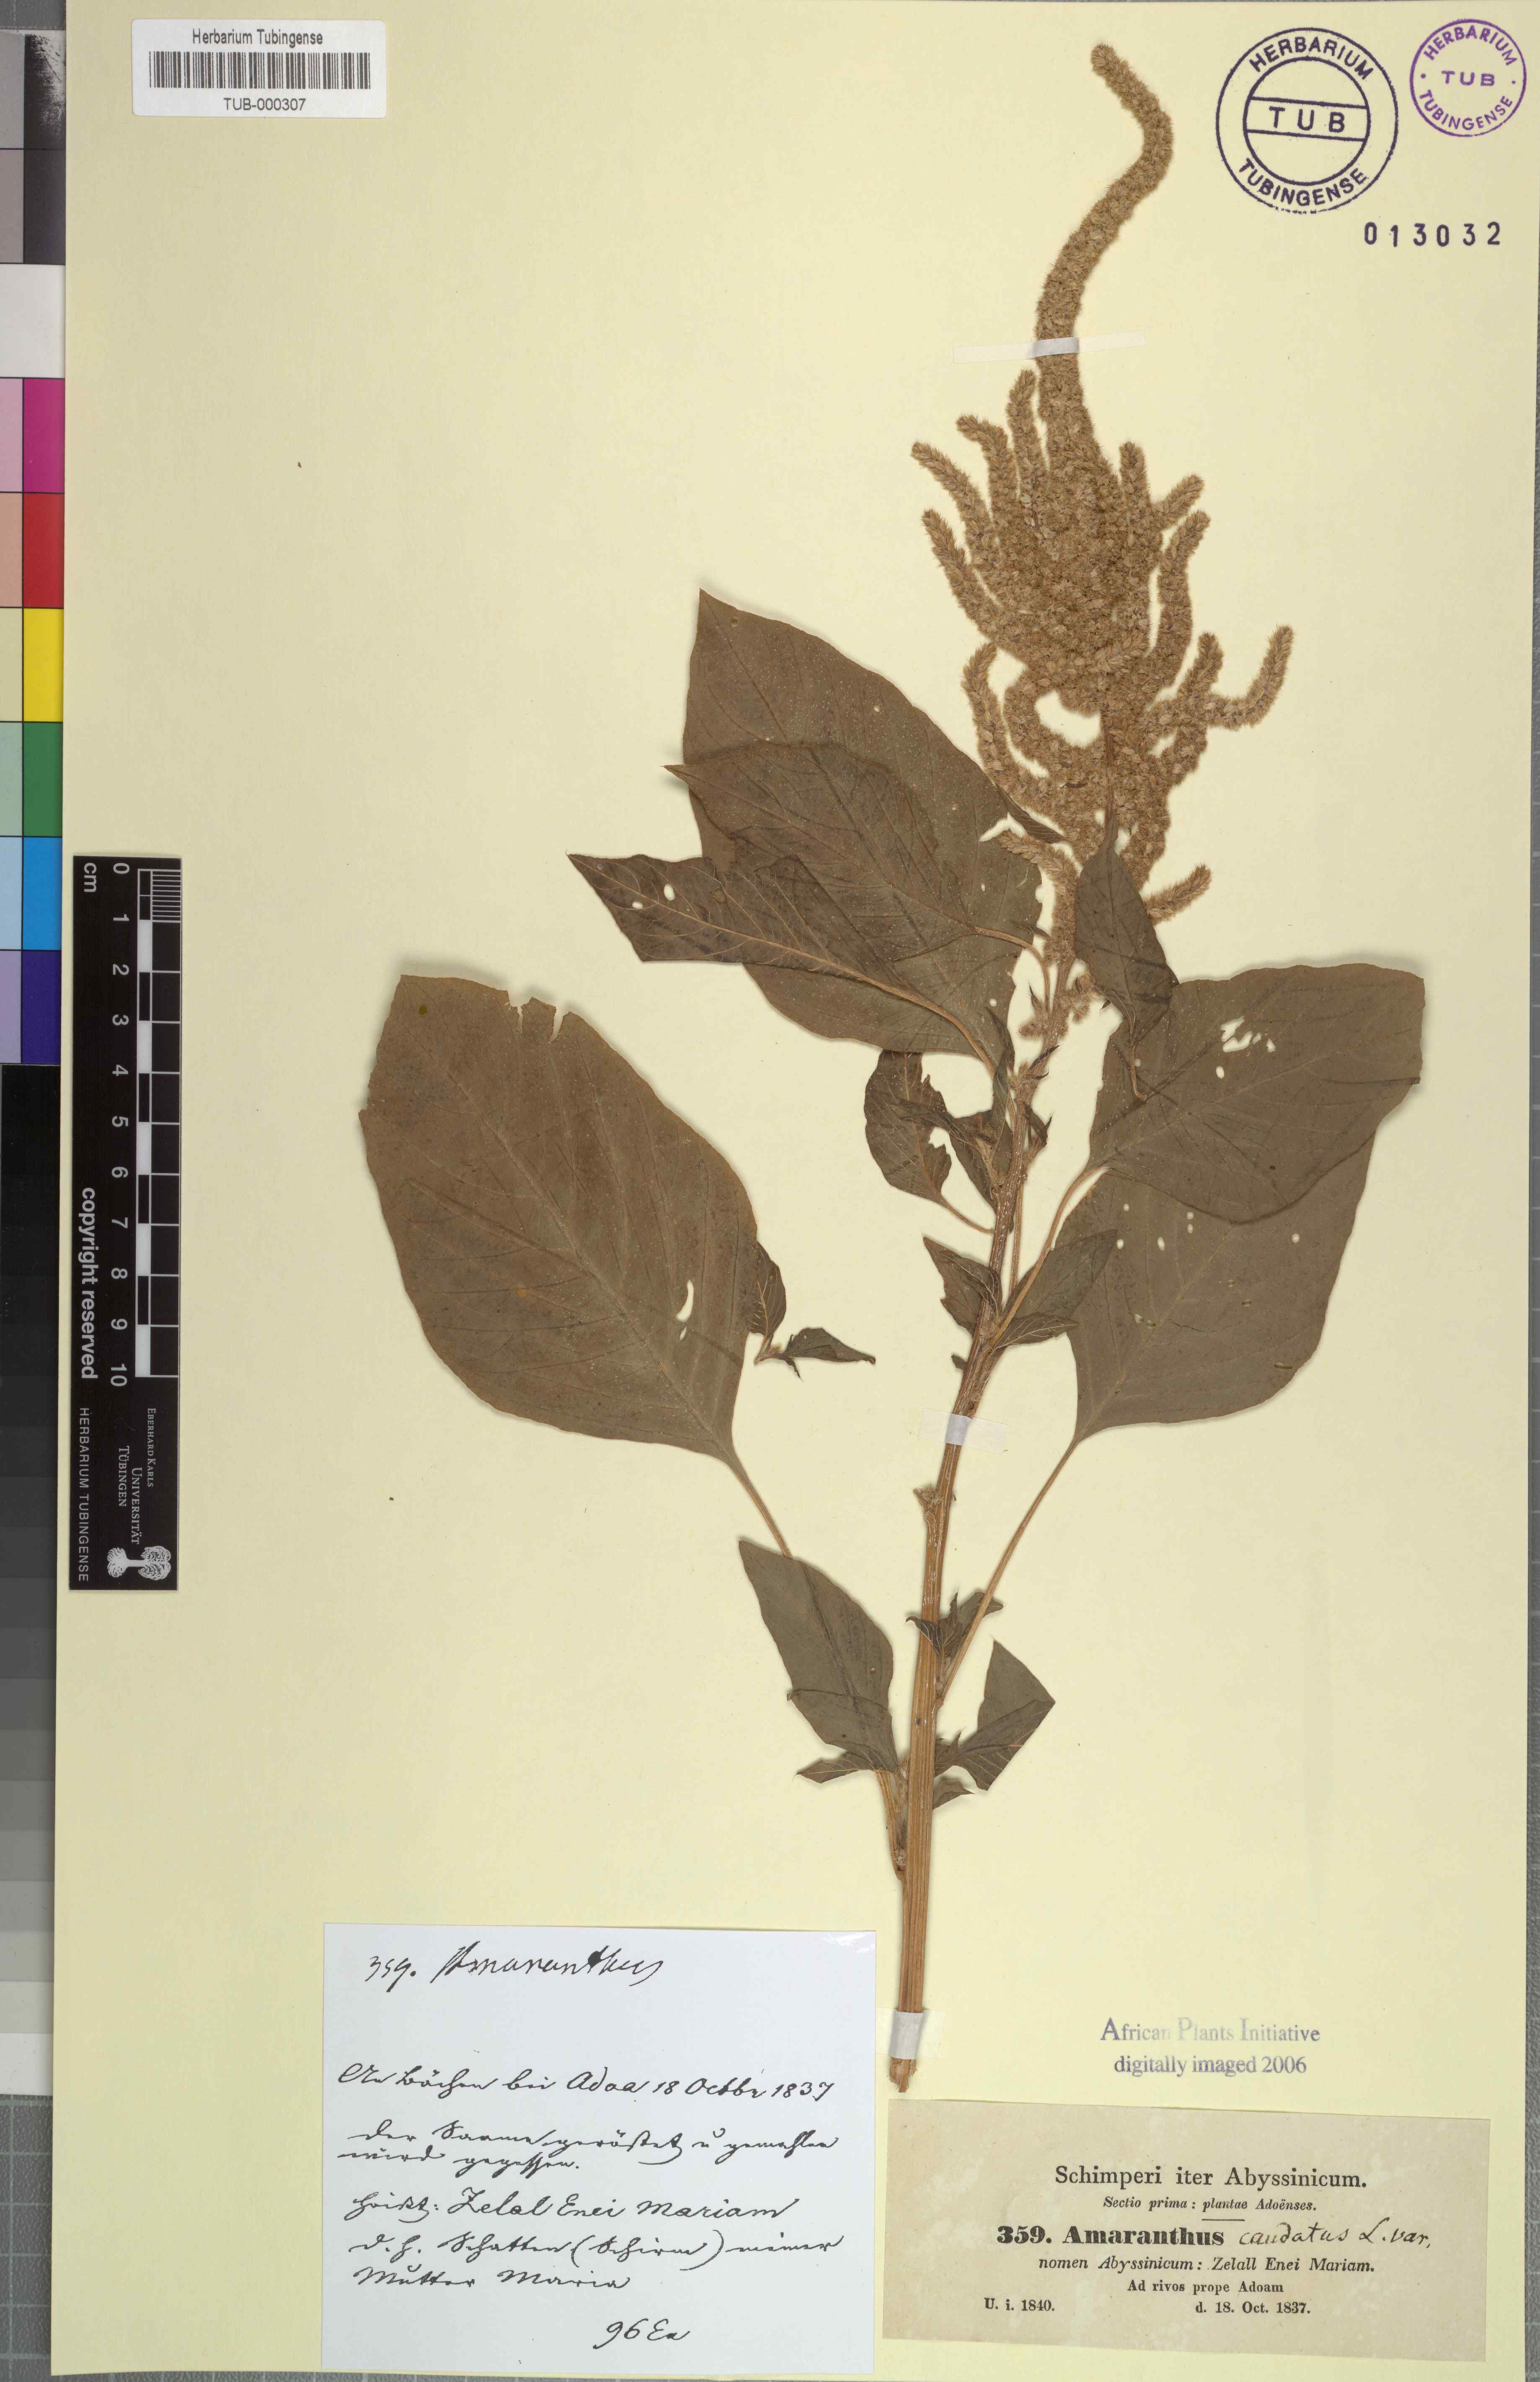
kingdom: Plantae
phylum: Tracheophyta
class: Magnoliopsida
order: Caryophyllales
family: Amaranthaceae
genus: Amaranthus
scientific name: Amaranthus caudatus
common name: Love-lies-bleeding
